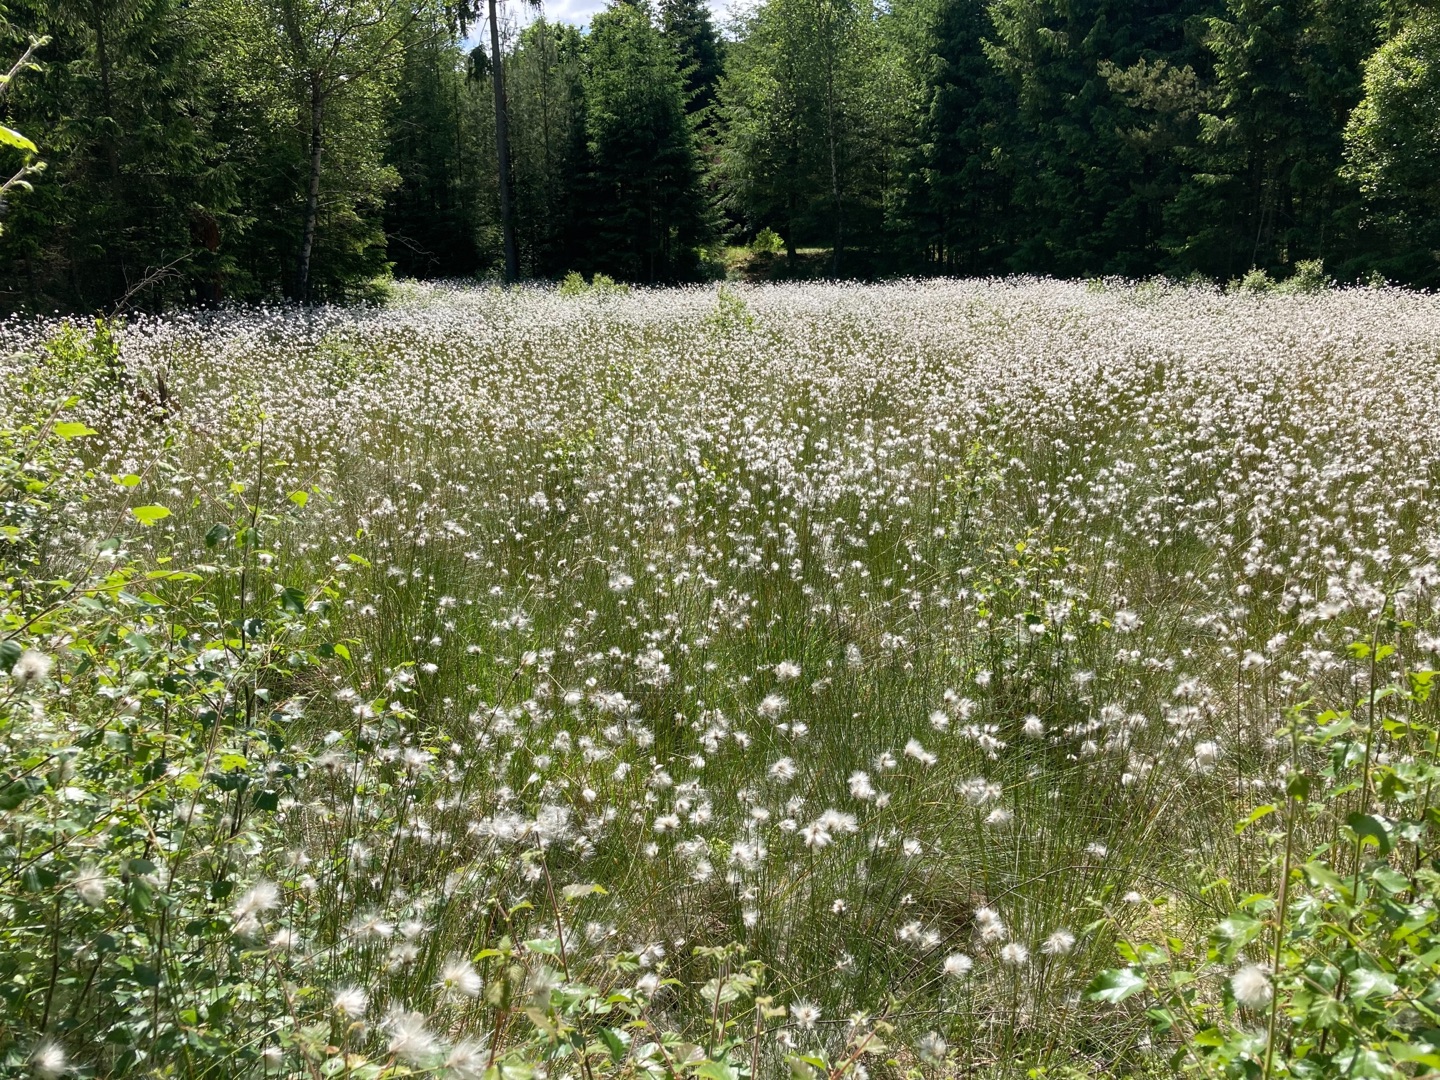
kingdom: Plantae
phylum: Tracheophyta
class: Liliopsida
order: Poales
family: Cyperaceae
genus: Eriophorum
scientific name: Eriophorum vaginatum
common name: Tue-kæruld
